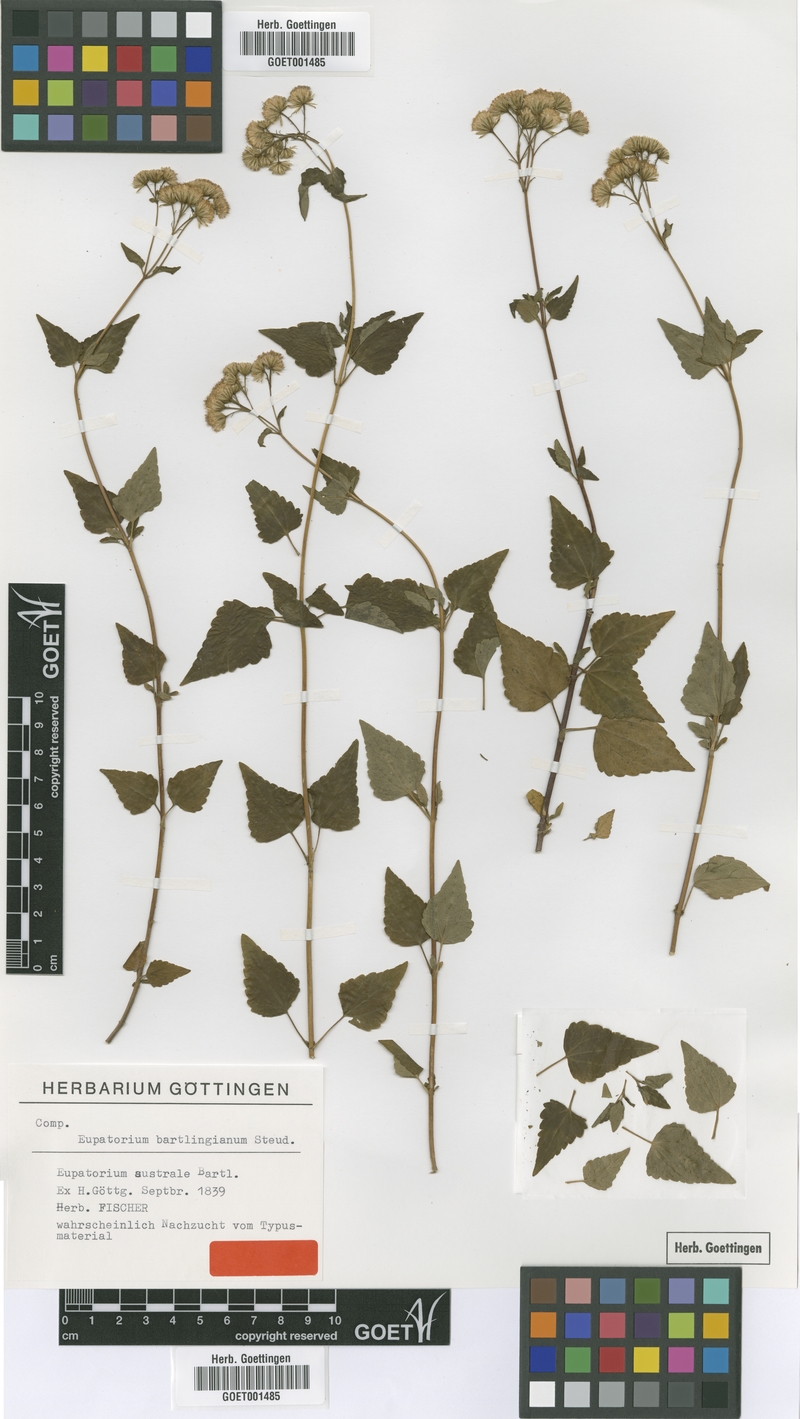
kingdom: Plantae
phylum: Tracheophyta
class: Magnoliopsida
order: Asterales
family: Asteraceae
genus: Ageratina
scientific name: Ageratina glechonophylla
